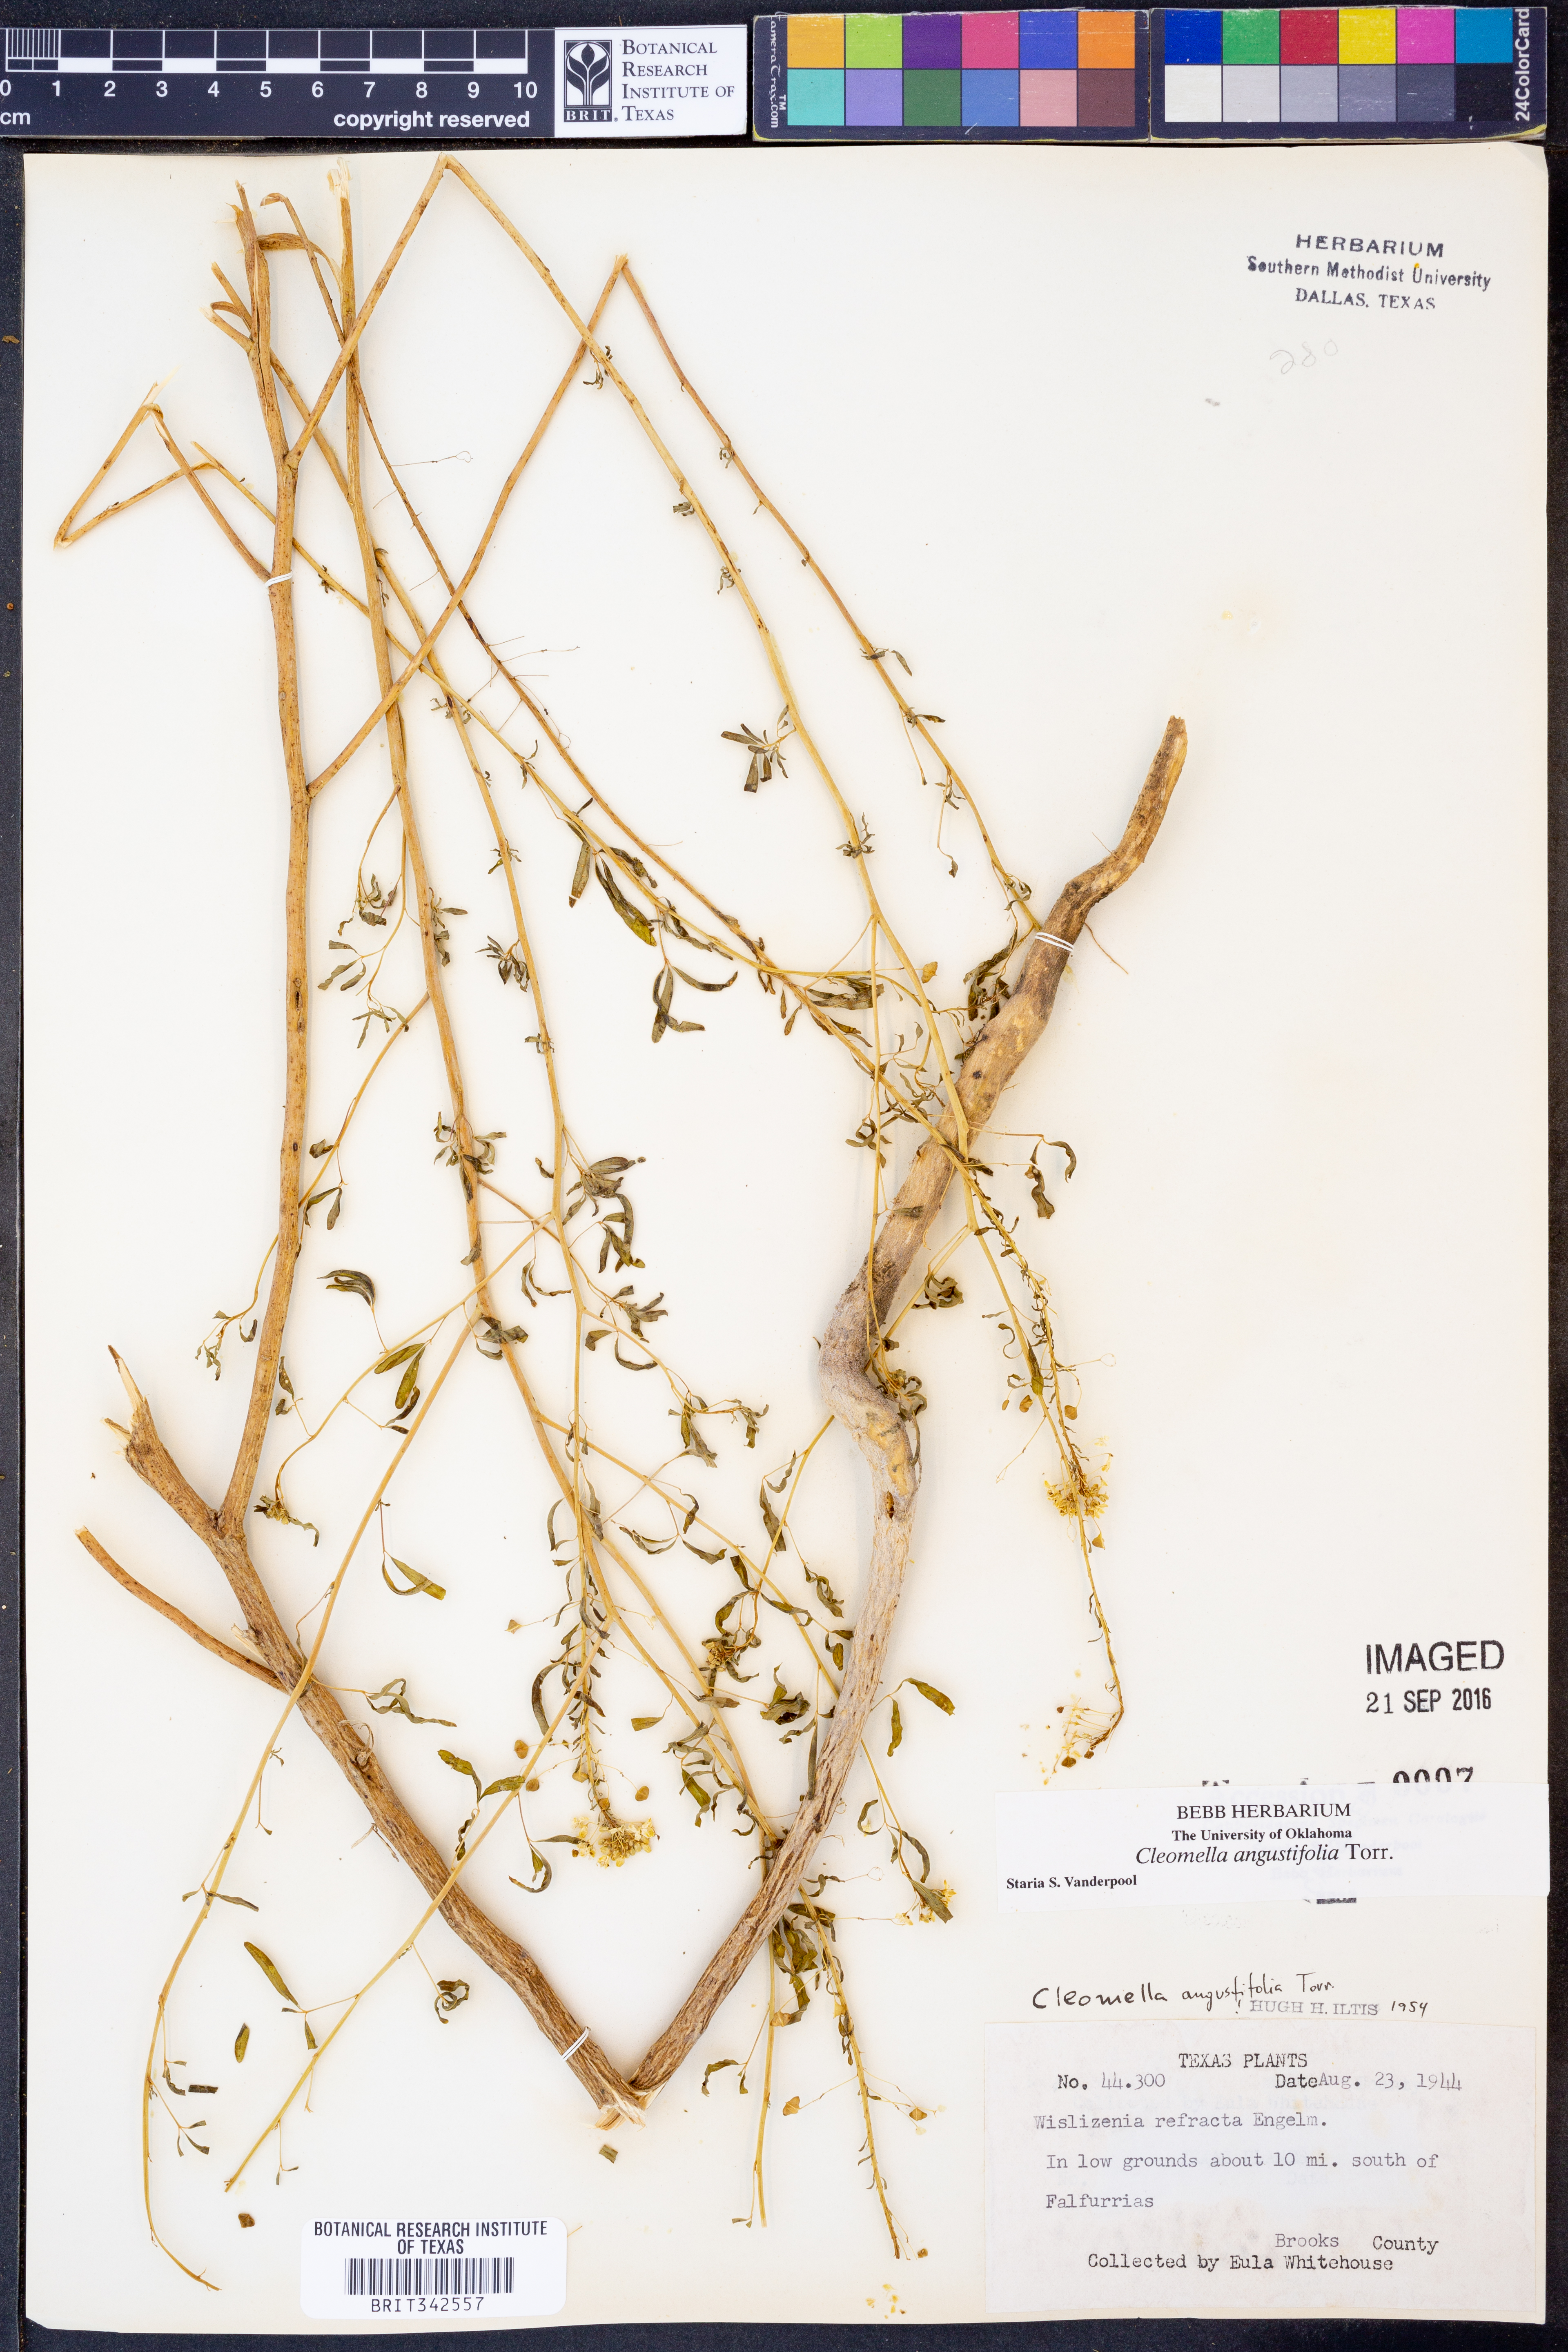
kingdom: Plantae
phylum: Tracheophyta
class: Magnoliopsida
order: Brassicales
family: Cleomaceae
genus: Cleomella
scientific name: Cleomella angustifolia
